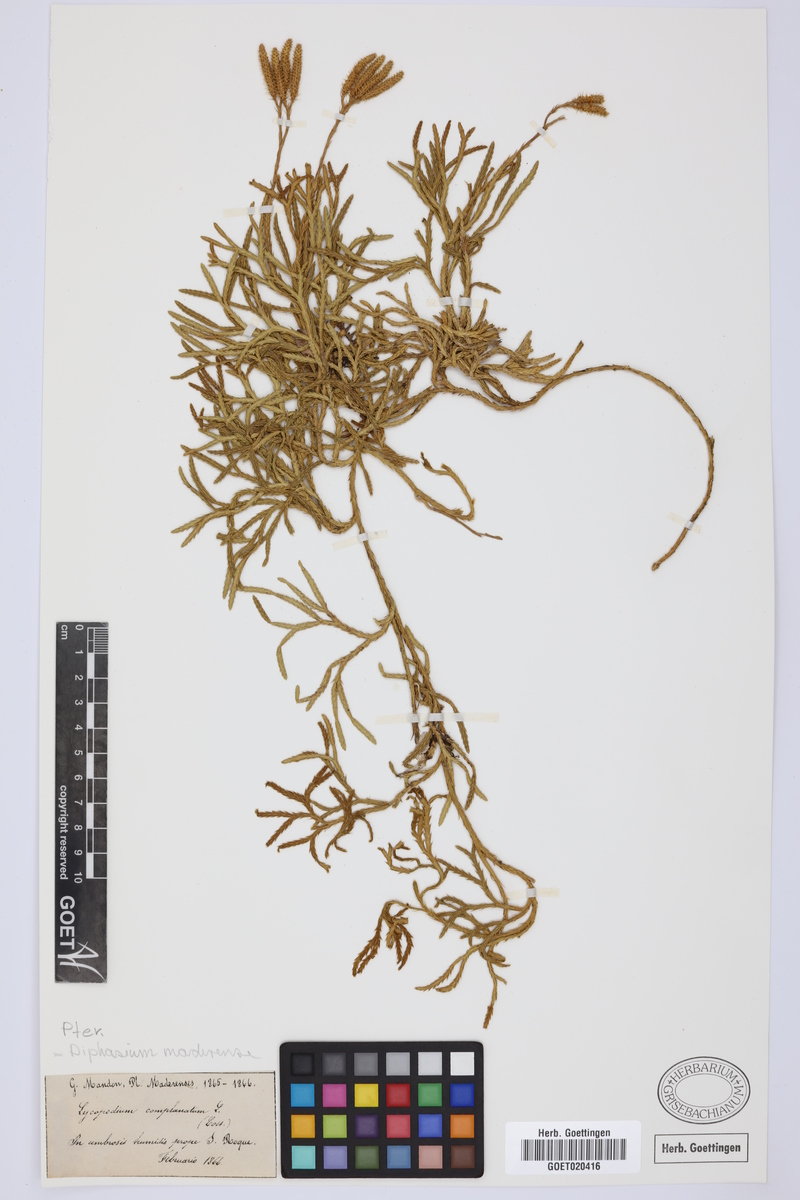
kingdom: Plantae
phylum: Tracheophyta
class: Lycopodiopsida
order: Lycopodiales
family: Lycopodiaceae
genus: Diphasiastrum
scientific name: Diphasiastrum madeirense
